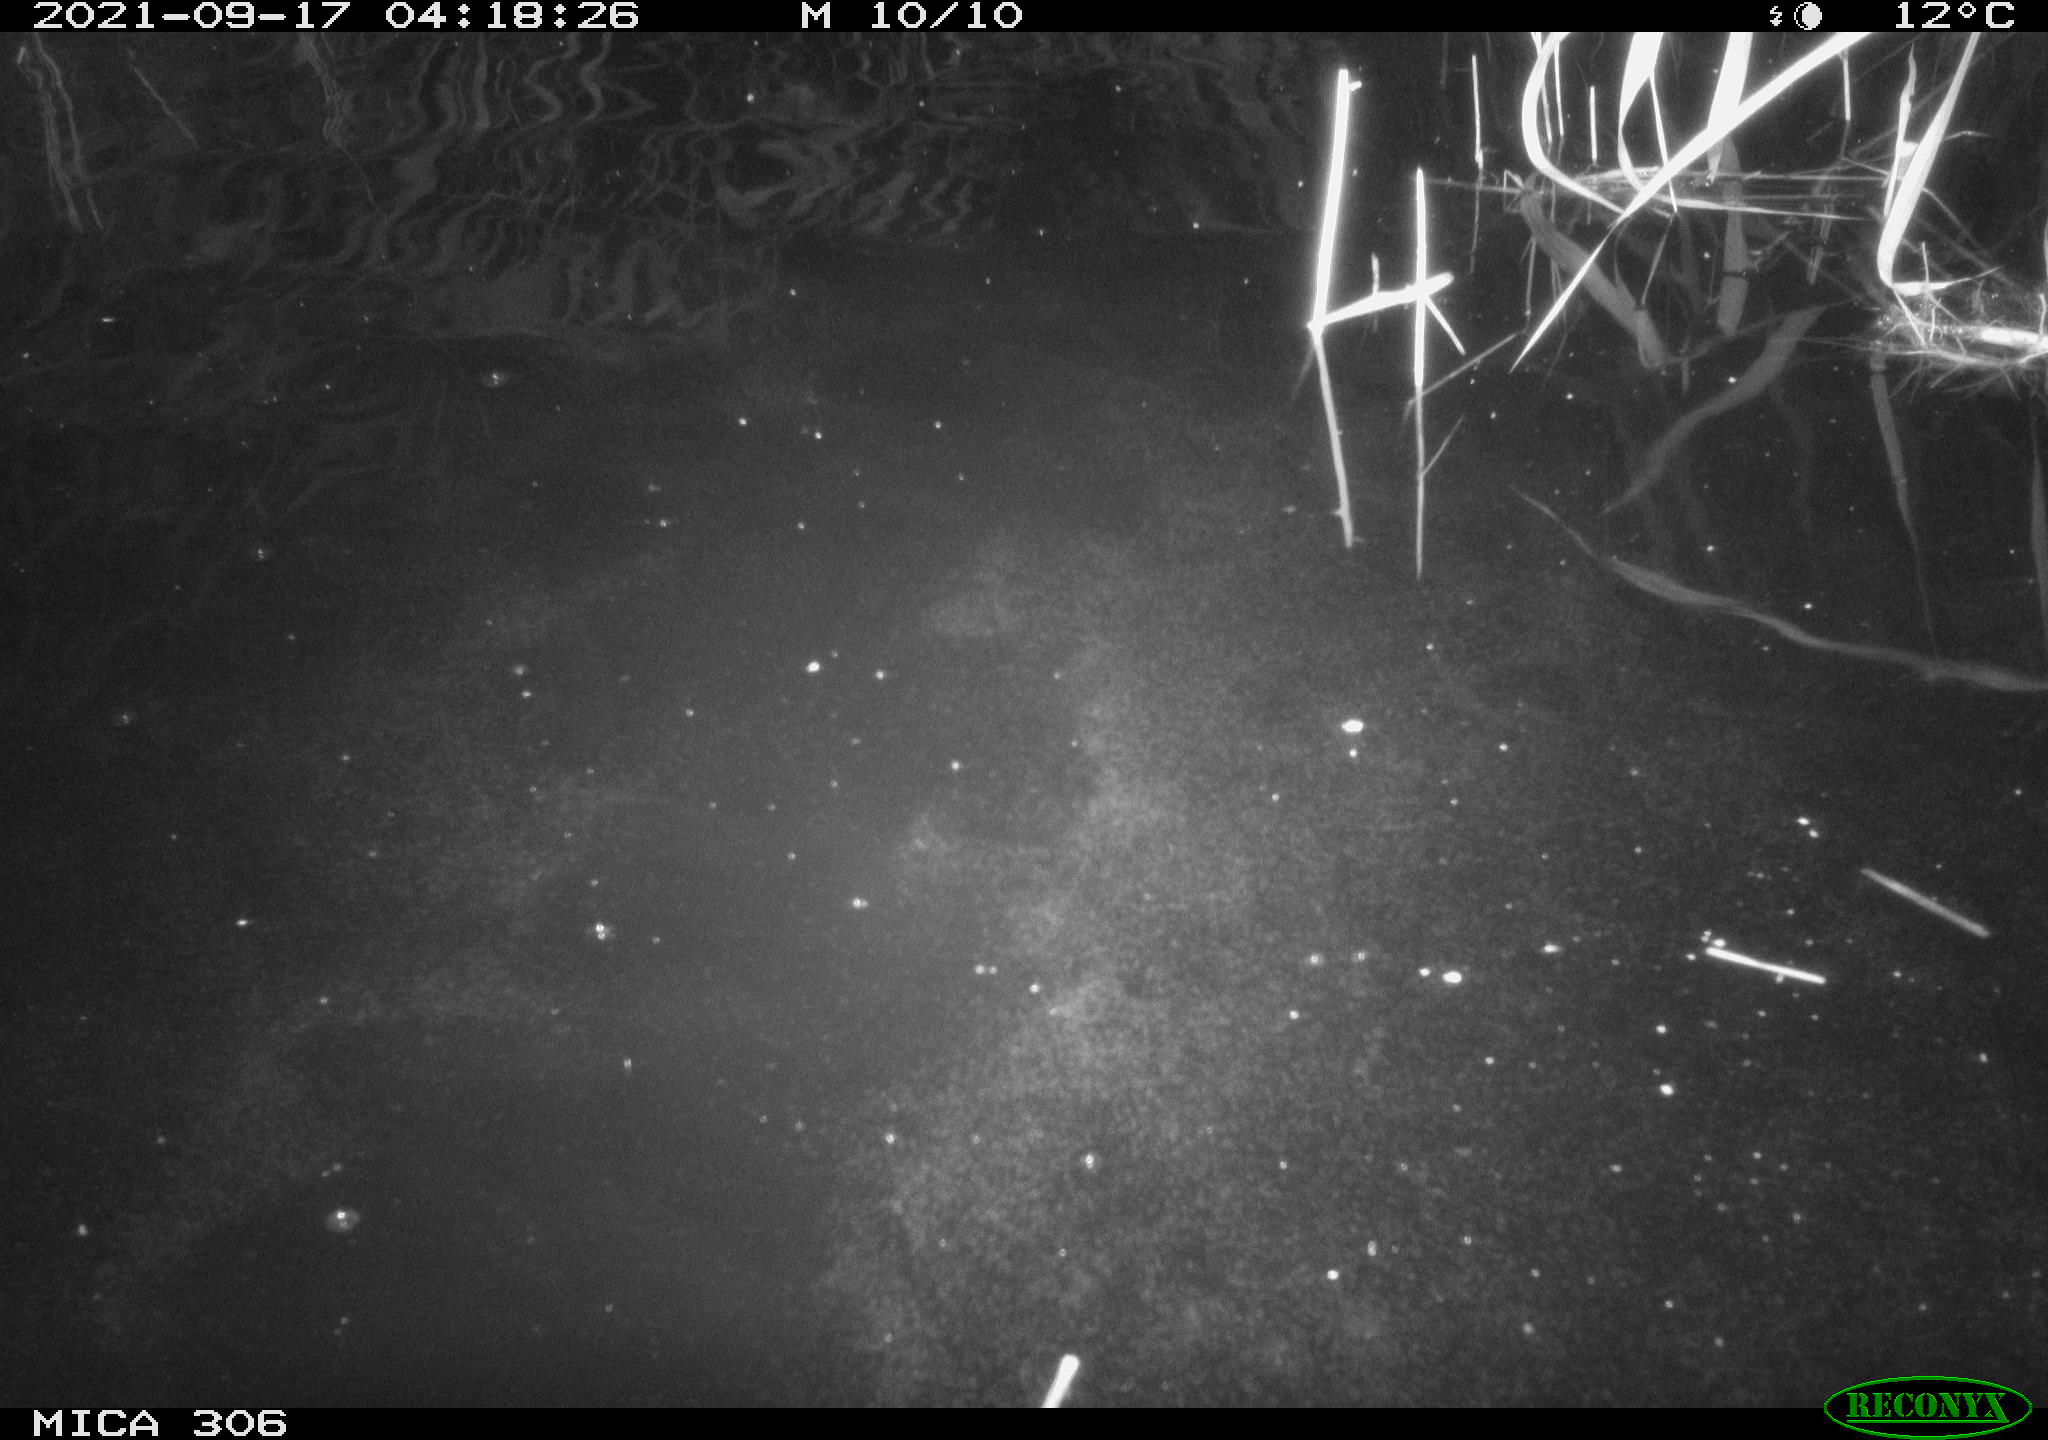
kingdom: Animalia
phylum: Chordata
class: Mammalia
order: Rodentia
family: Cricetidae
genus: Ondatra
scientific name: Ondatra zibethicus
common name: Muskrat
